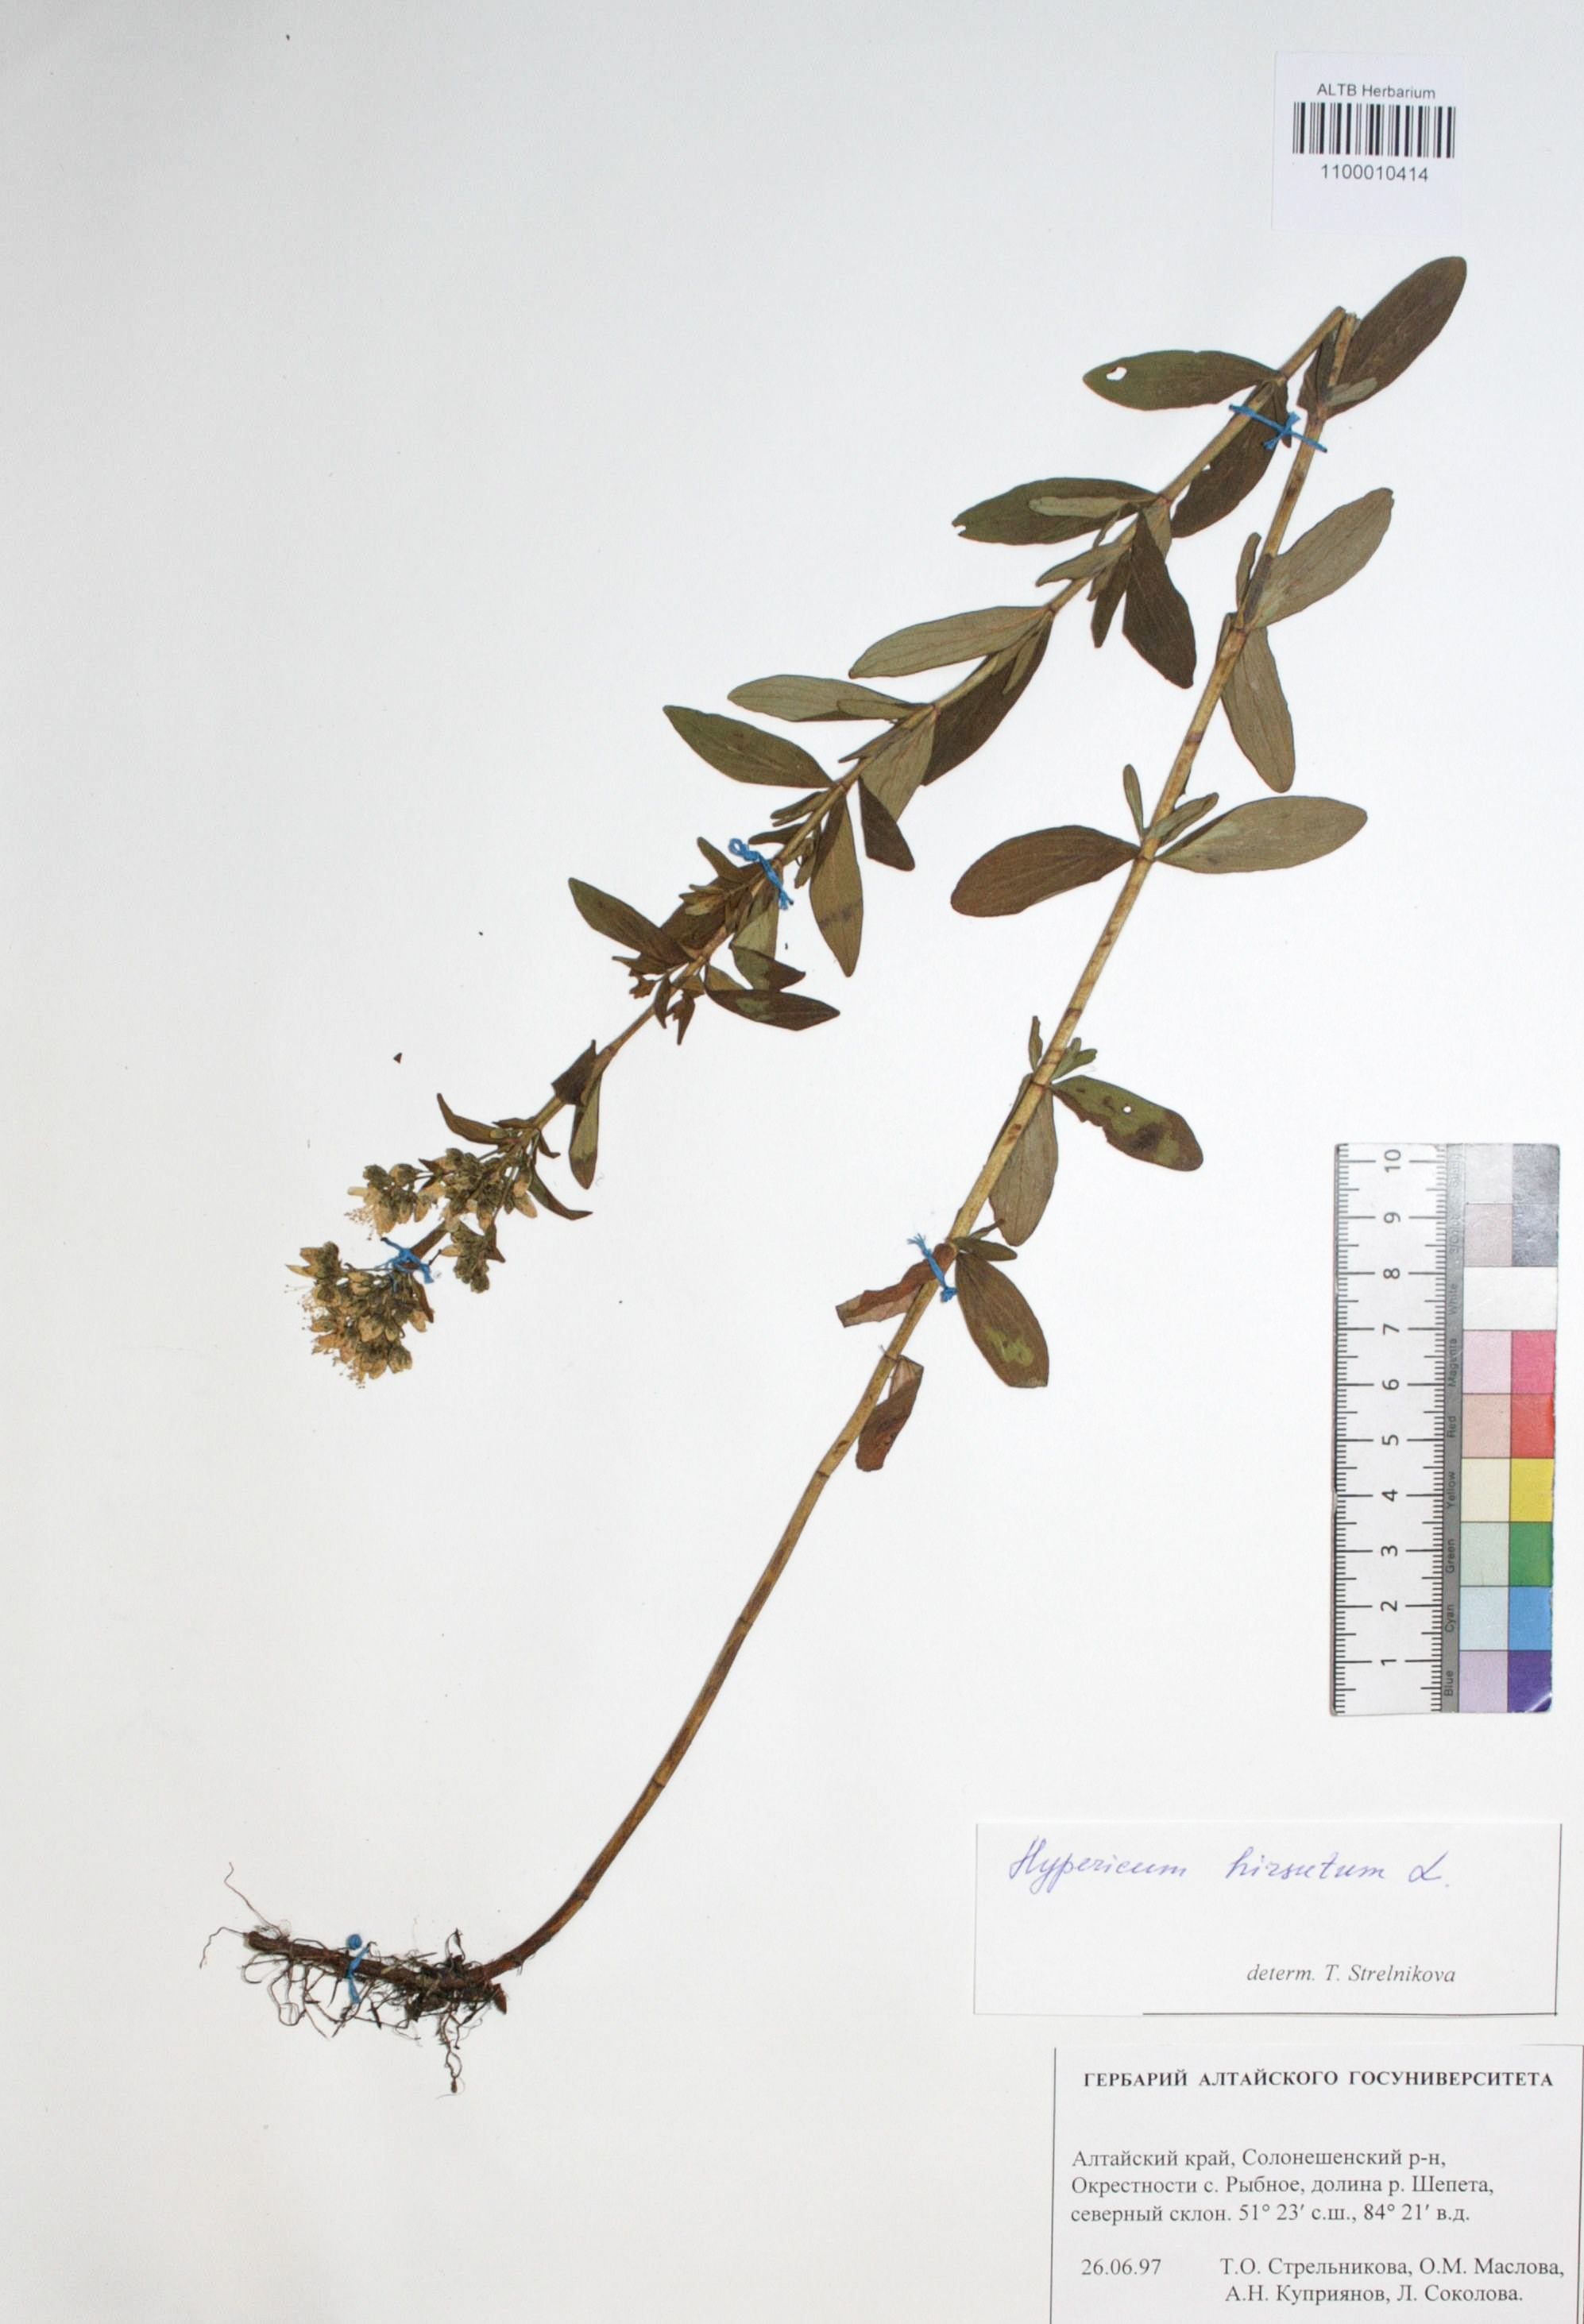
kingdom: Plantae
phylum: Tracheophyta
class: Magnoliopsida
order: Malpighiales
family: Hypericaceae
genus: Hypericum
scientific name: Hypericum hirsutum
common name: Hairy st. john's-wort
